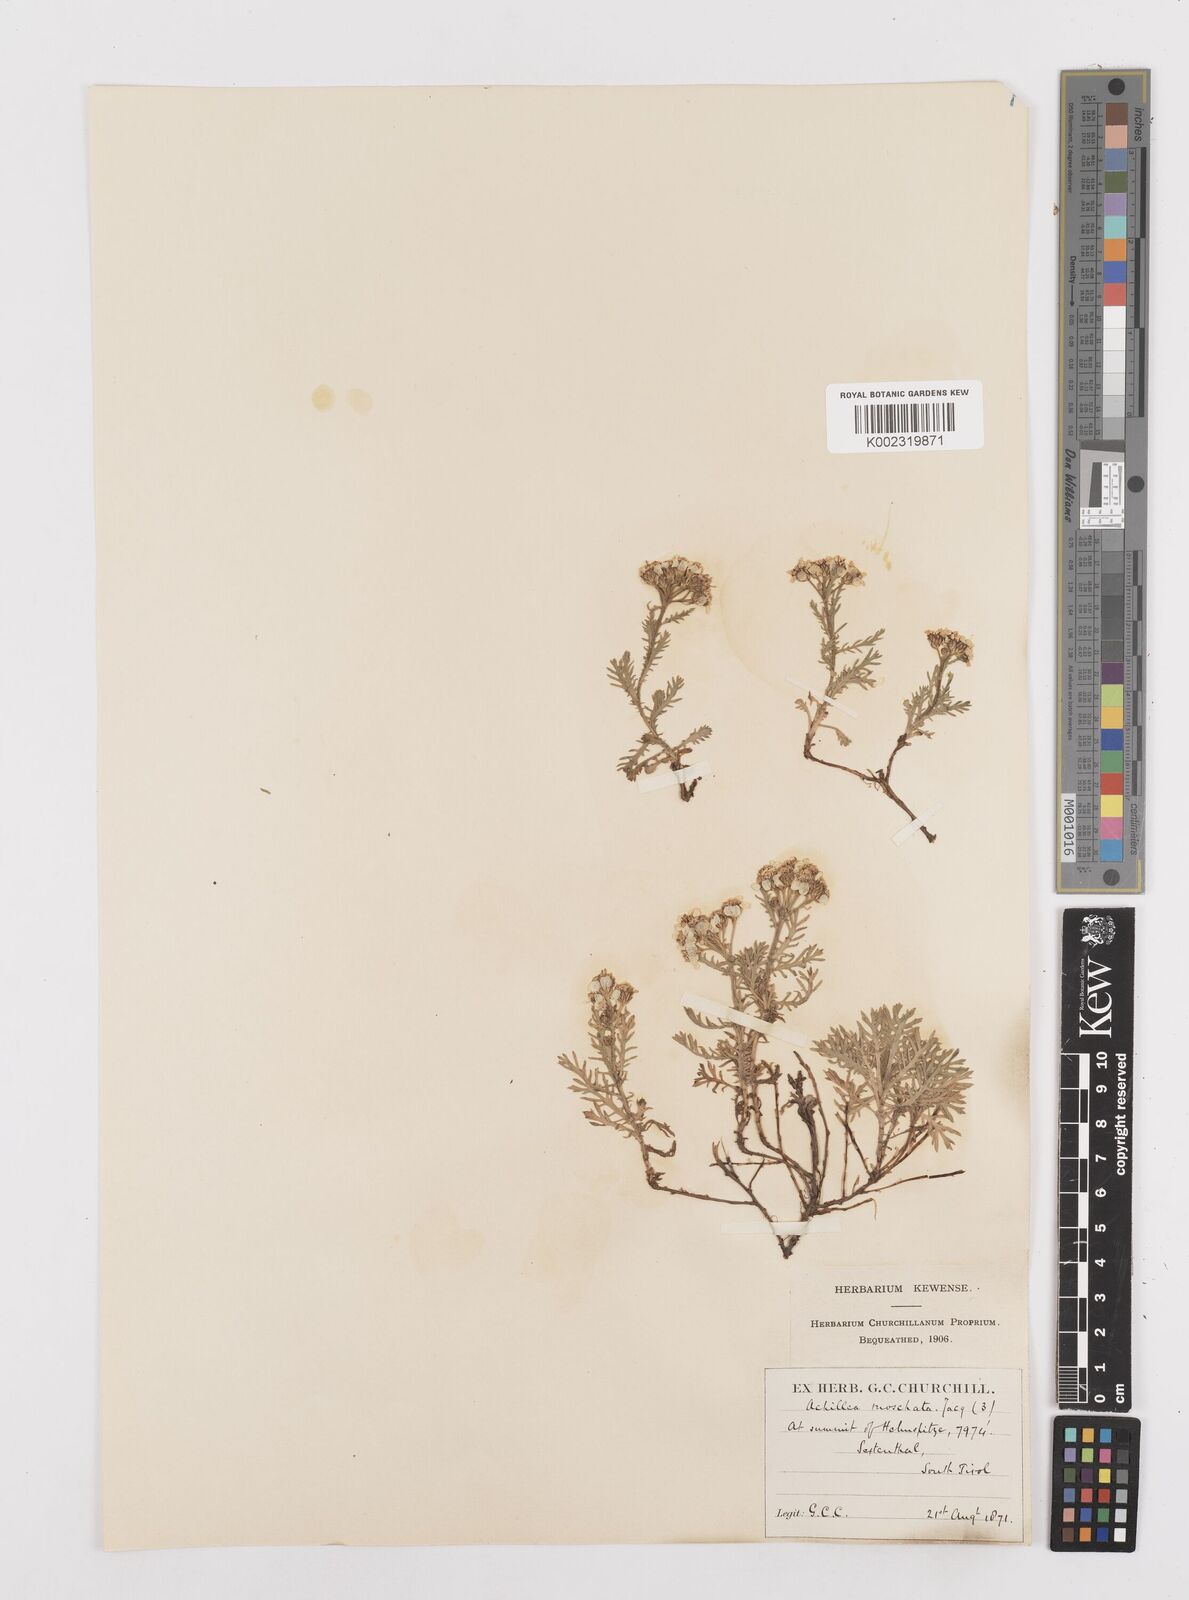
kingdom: Plantae
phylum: Tracheophyta
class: Magnoliopsida
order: Asterales
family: Asteraceae
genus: Achillea
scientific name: Achillea erba-rotta
